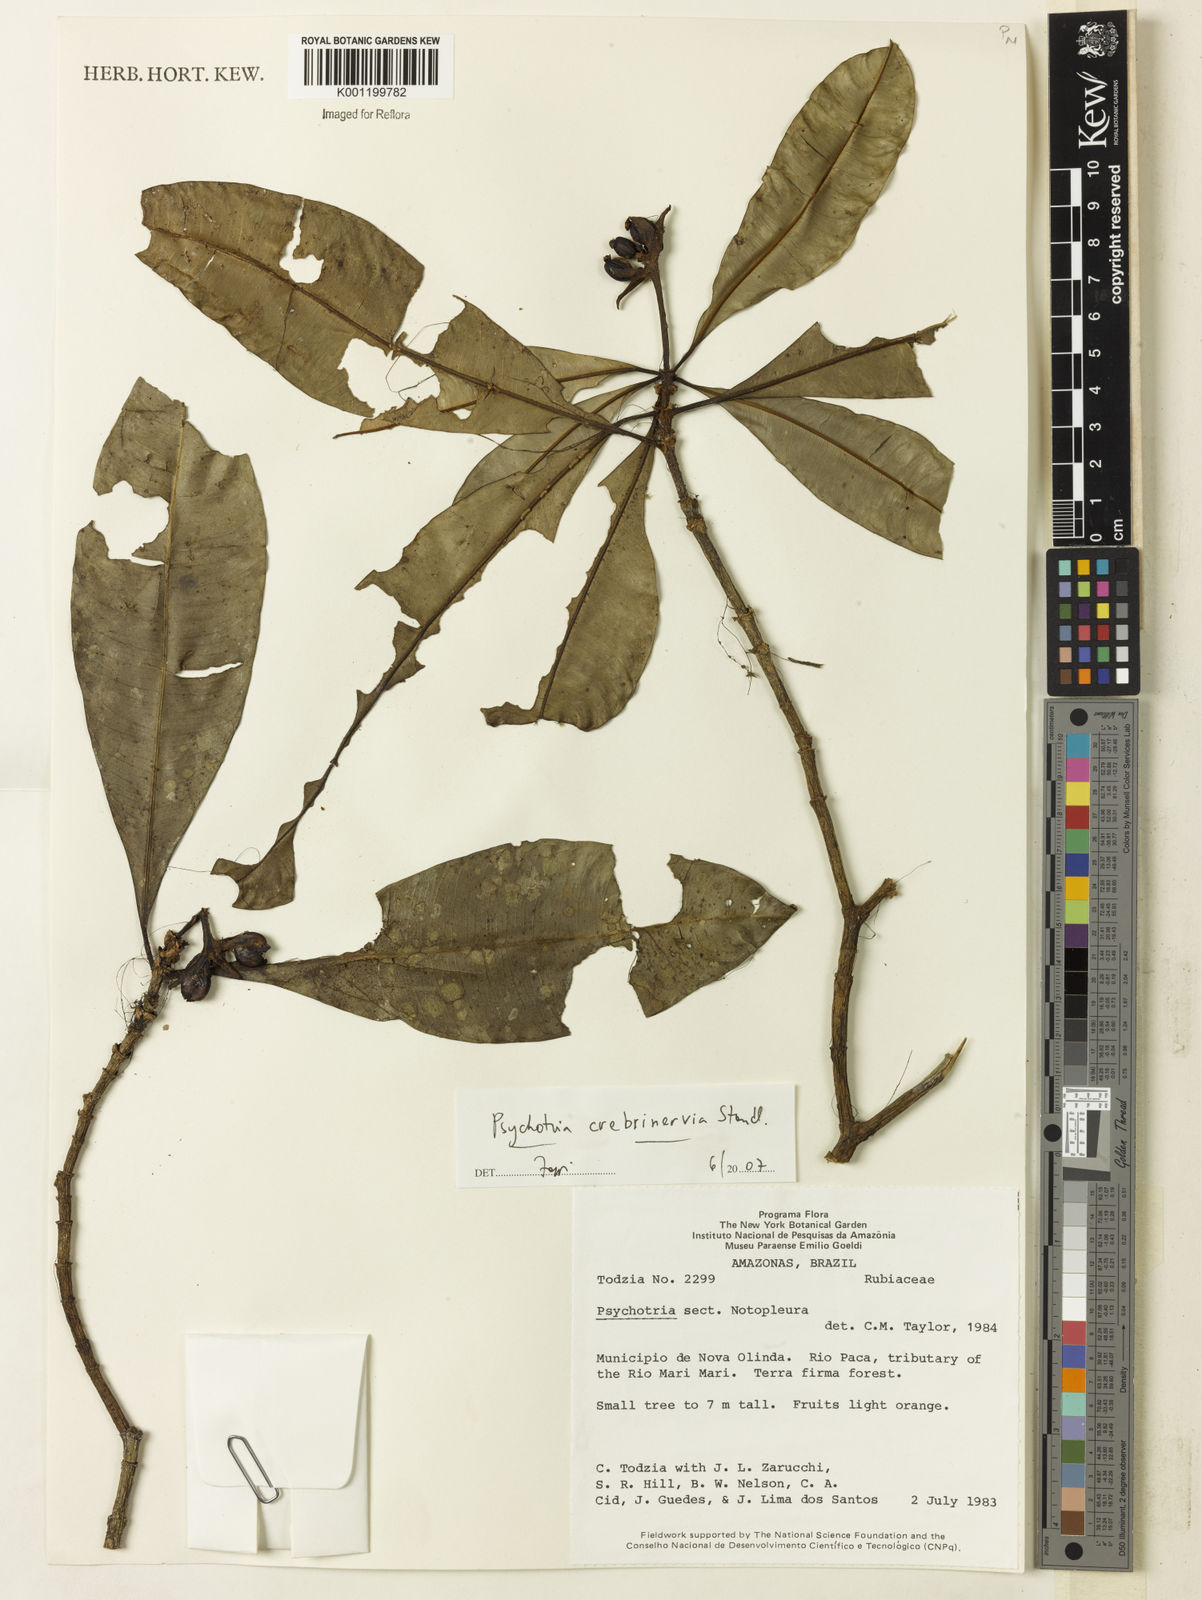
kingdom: Plantae
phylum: Tracheophyta
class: Magnoliopsida
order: Gentianales
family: Rubiaceae
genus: Carapichea
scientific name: Carapichea crebrinervia
